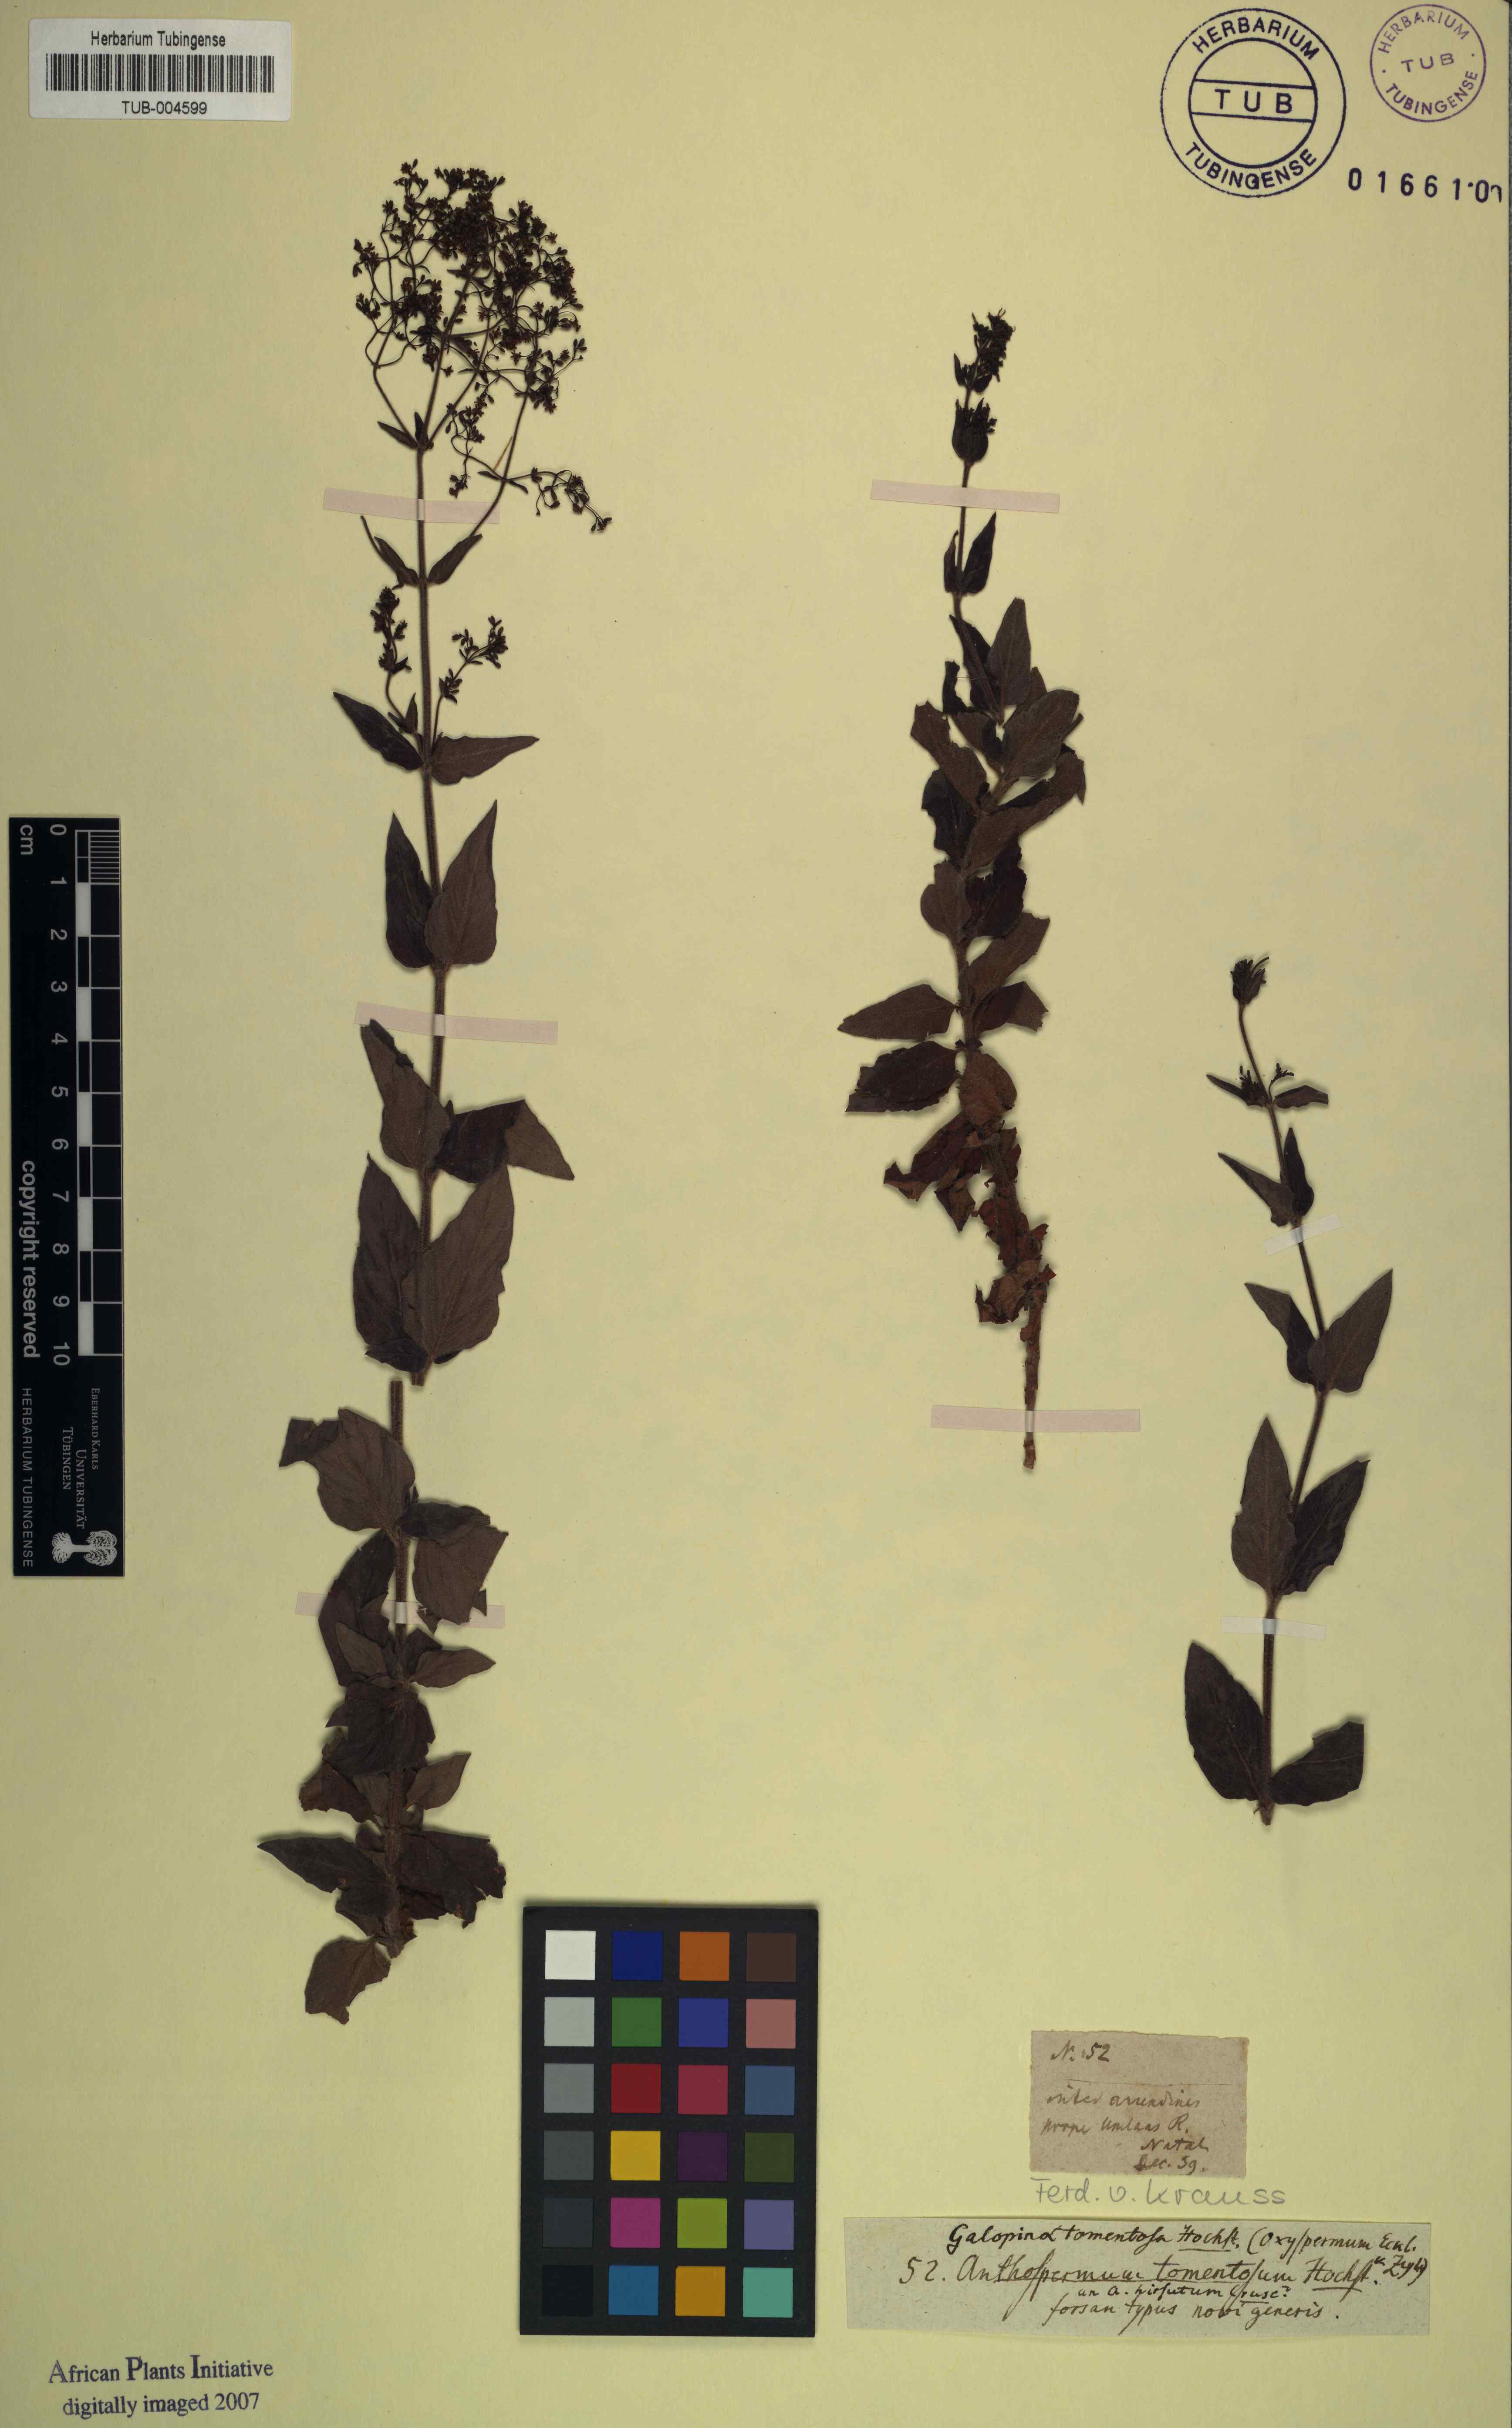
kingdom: Plantae
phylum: Tracheophyta
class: Magnoliopsida
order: Gentianales
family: Rubiaceae
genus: Galopina
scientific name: Galopina aspera
